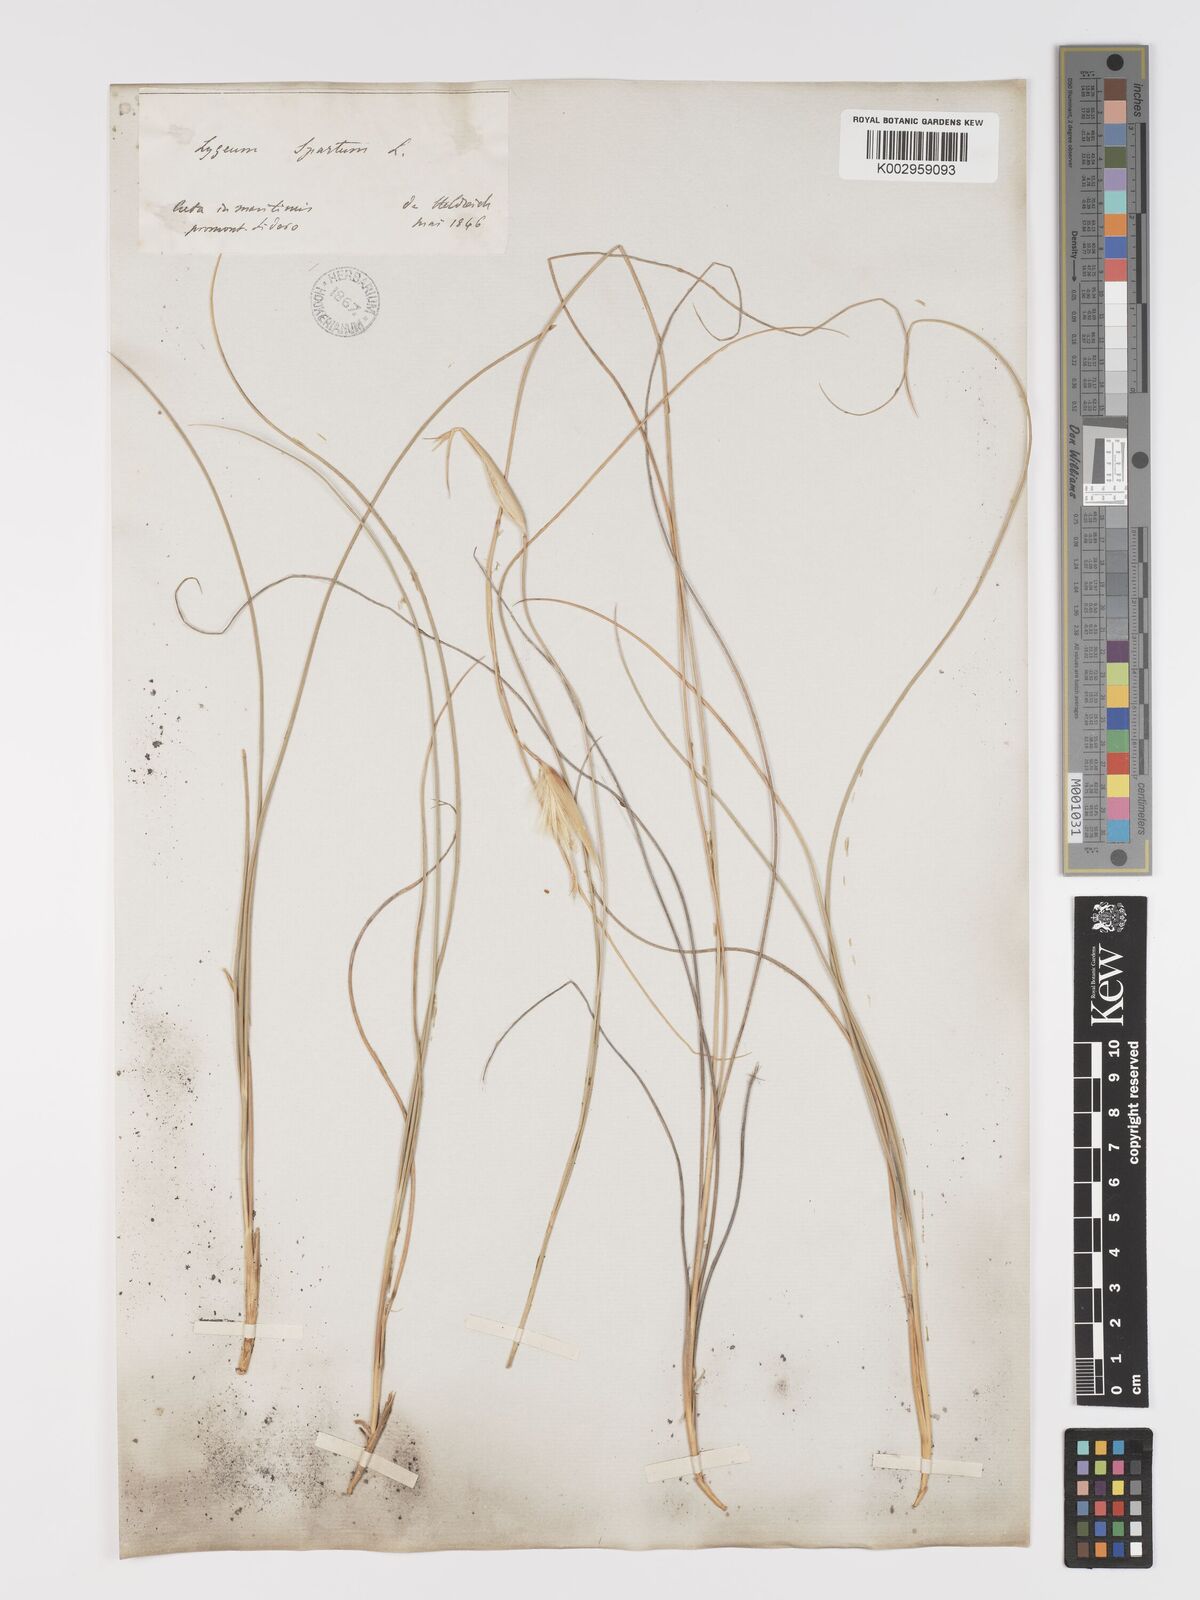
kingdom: Plantae
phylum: Tracheophyta
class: Liliopsida
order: Poales
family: Poaceae
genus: Lygeum
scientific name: Lygeum spartum
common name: Albardine
